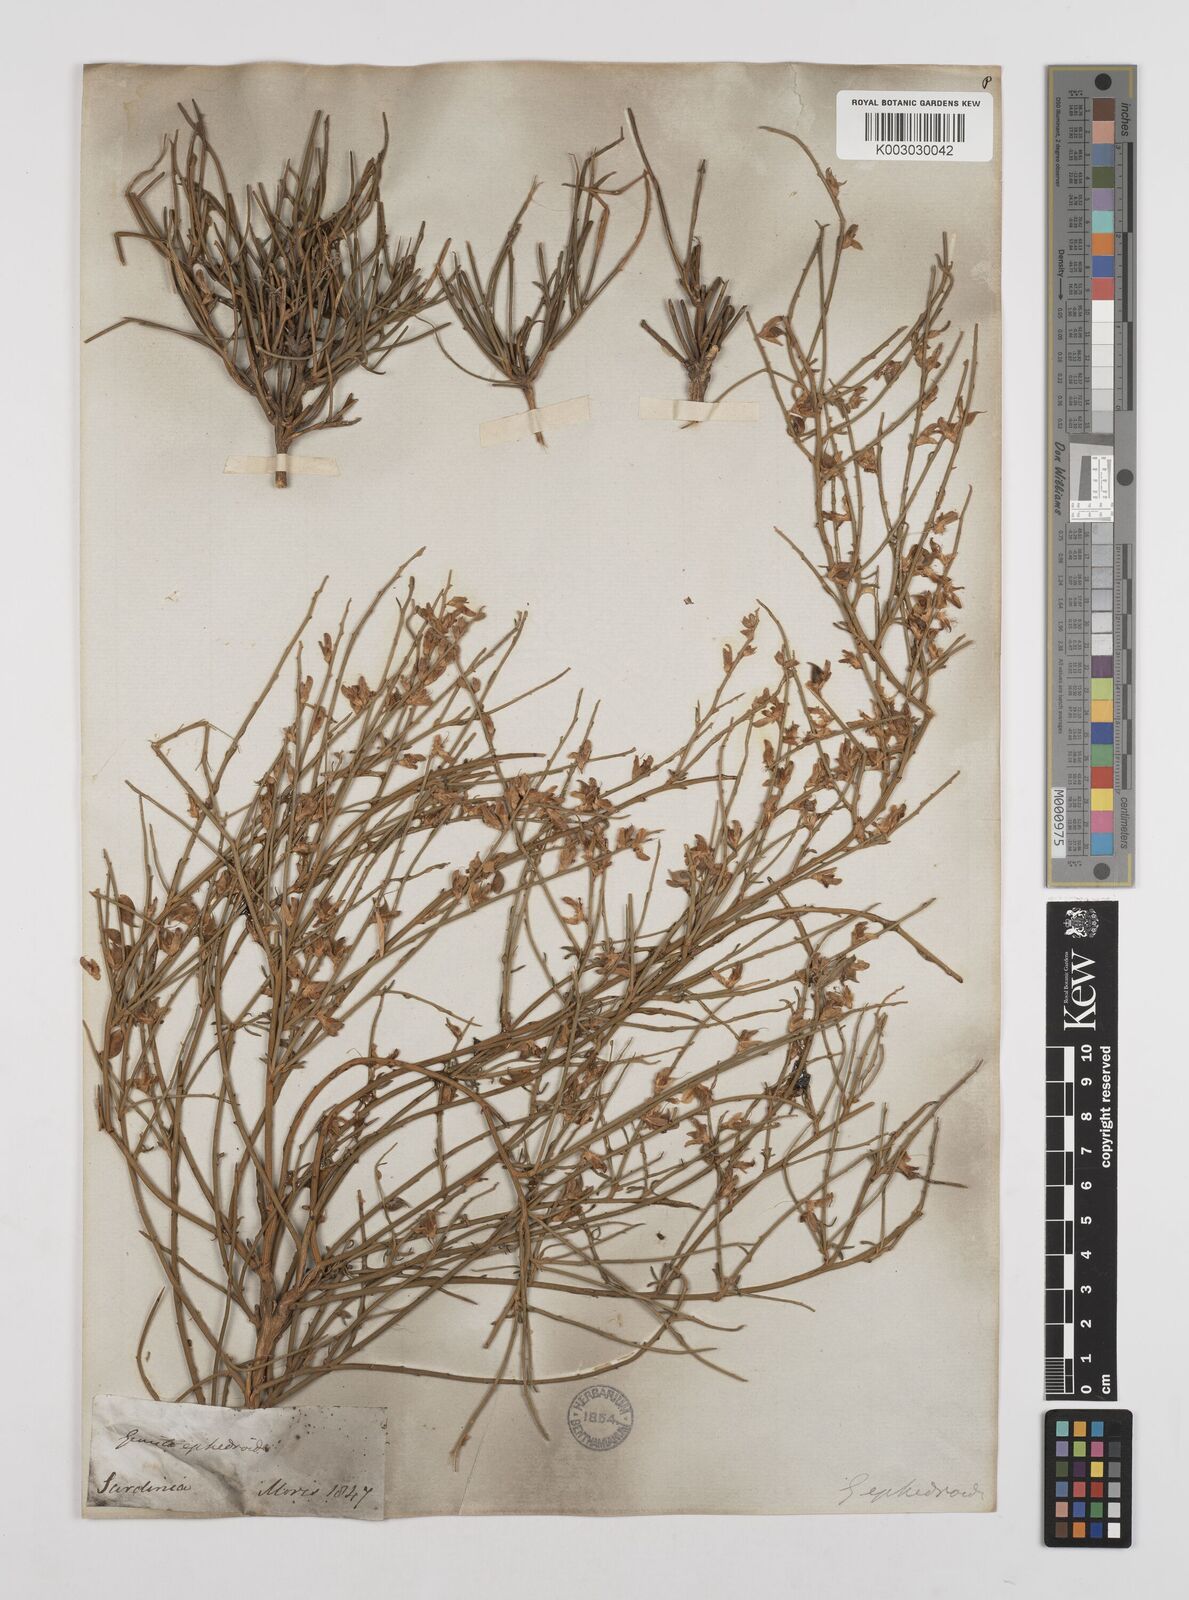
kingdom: Plantae
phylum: Tracheophyta
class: Magnoliopsida
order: Fabales
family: Fabaceae
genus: Genista
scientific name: Genista ephedroides
